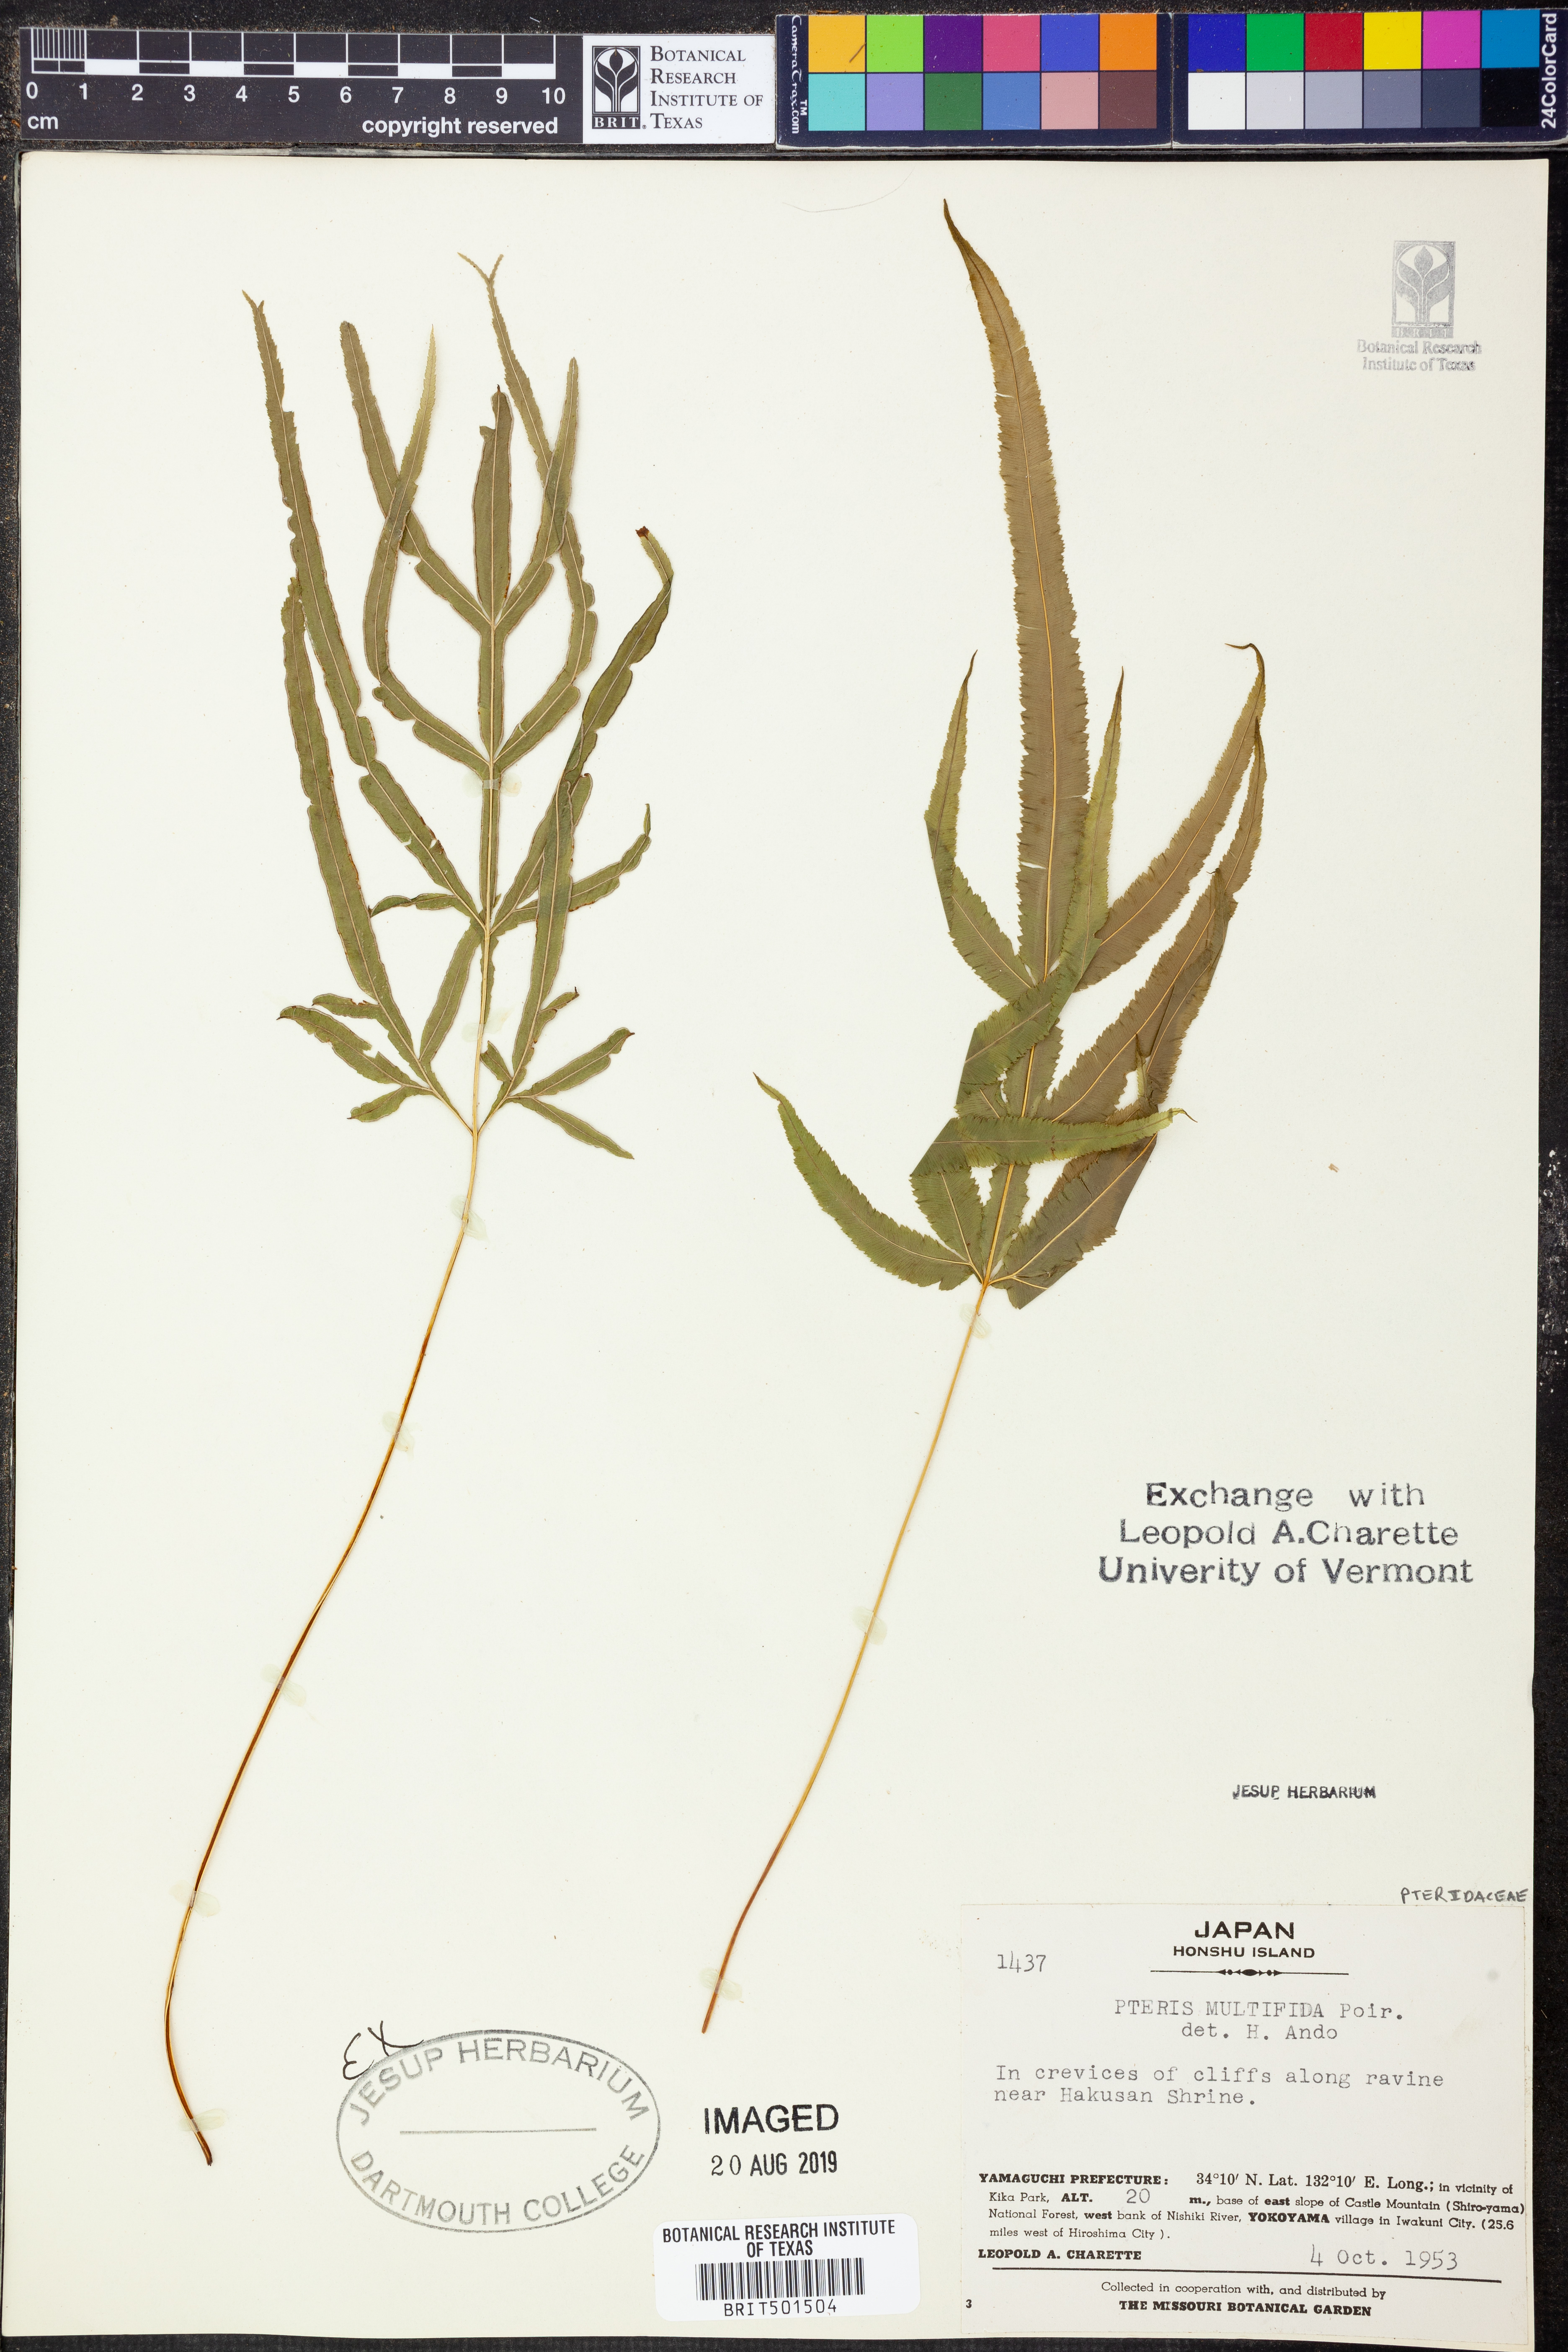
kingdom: Plantae
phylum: Tracheophyta
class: Polypodiopsida
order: Polypodiales
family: Pteridaceae
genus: Pteris
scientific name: Pteris multifida
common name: Spider brake
